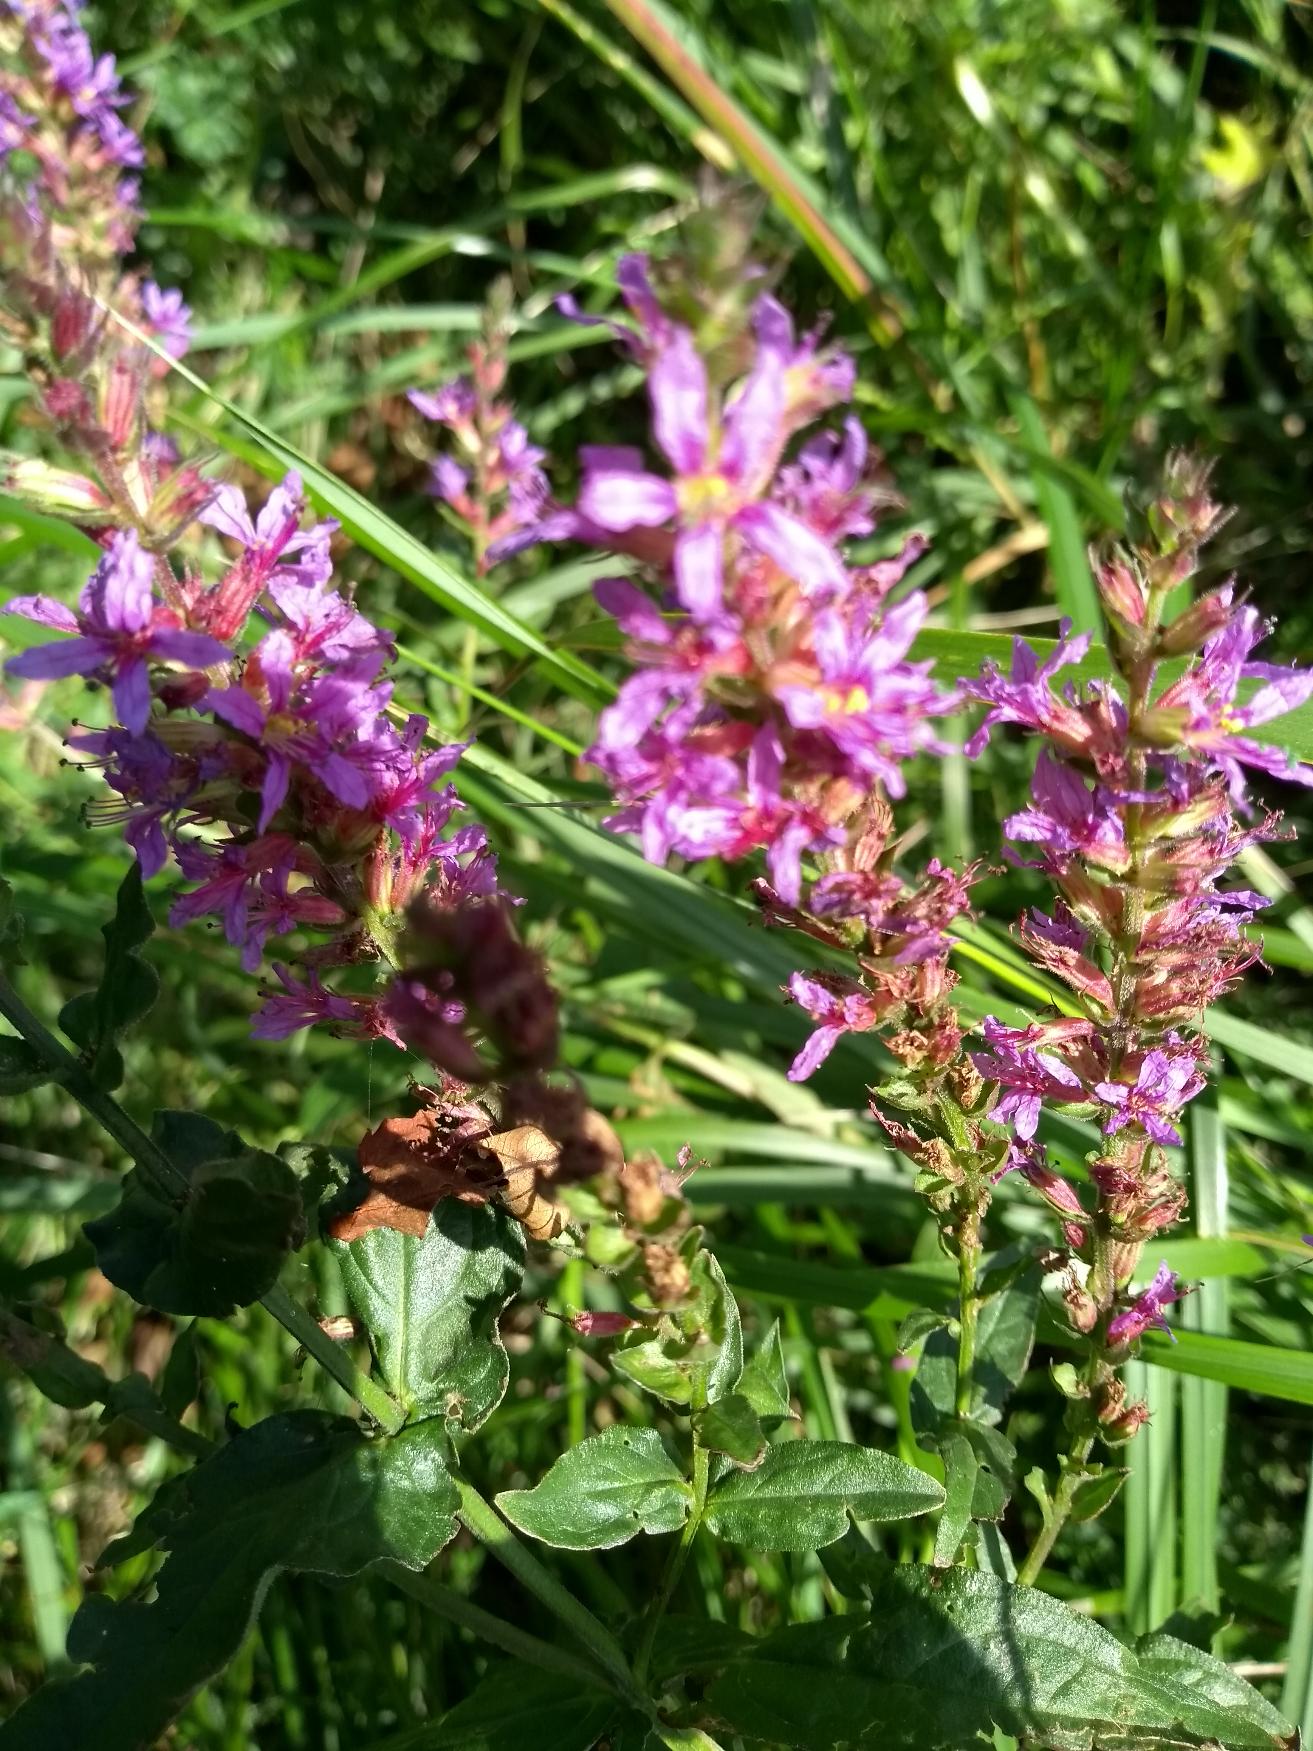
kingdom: Plantae
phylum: Tracheophyta
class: Magnoliopsida
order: Myrtales
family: Lythraceae
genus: Lythrum
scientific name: Lythrum salicaria
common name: Kattehale
